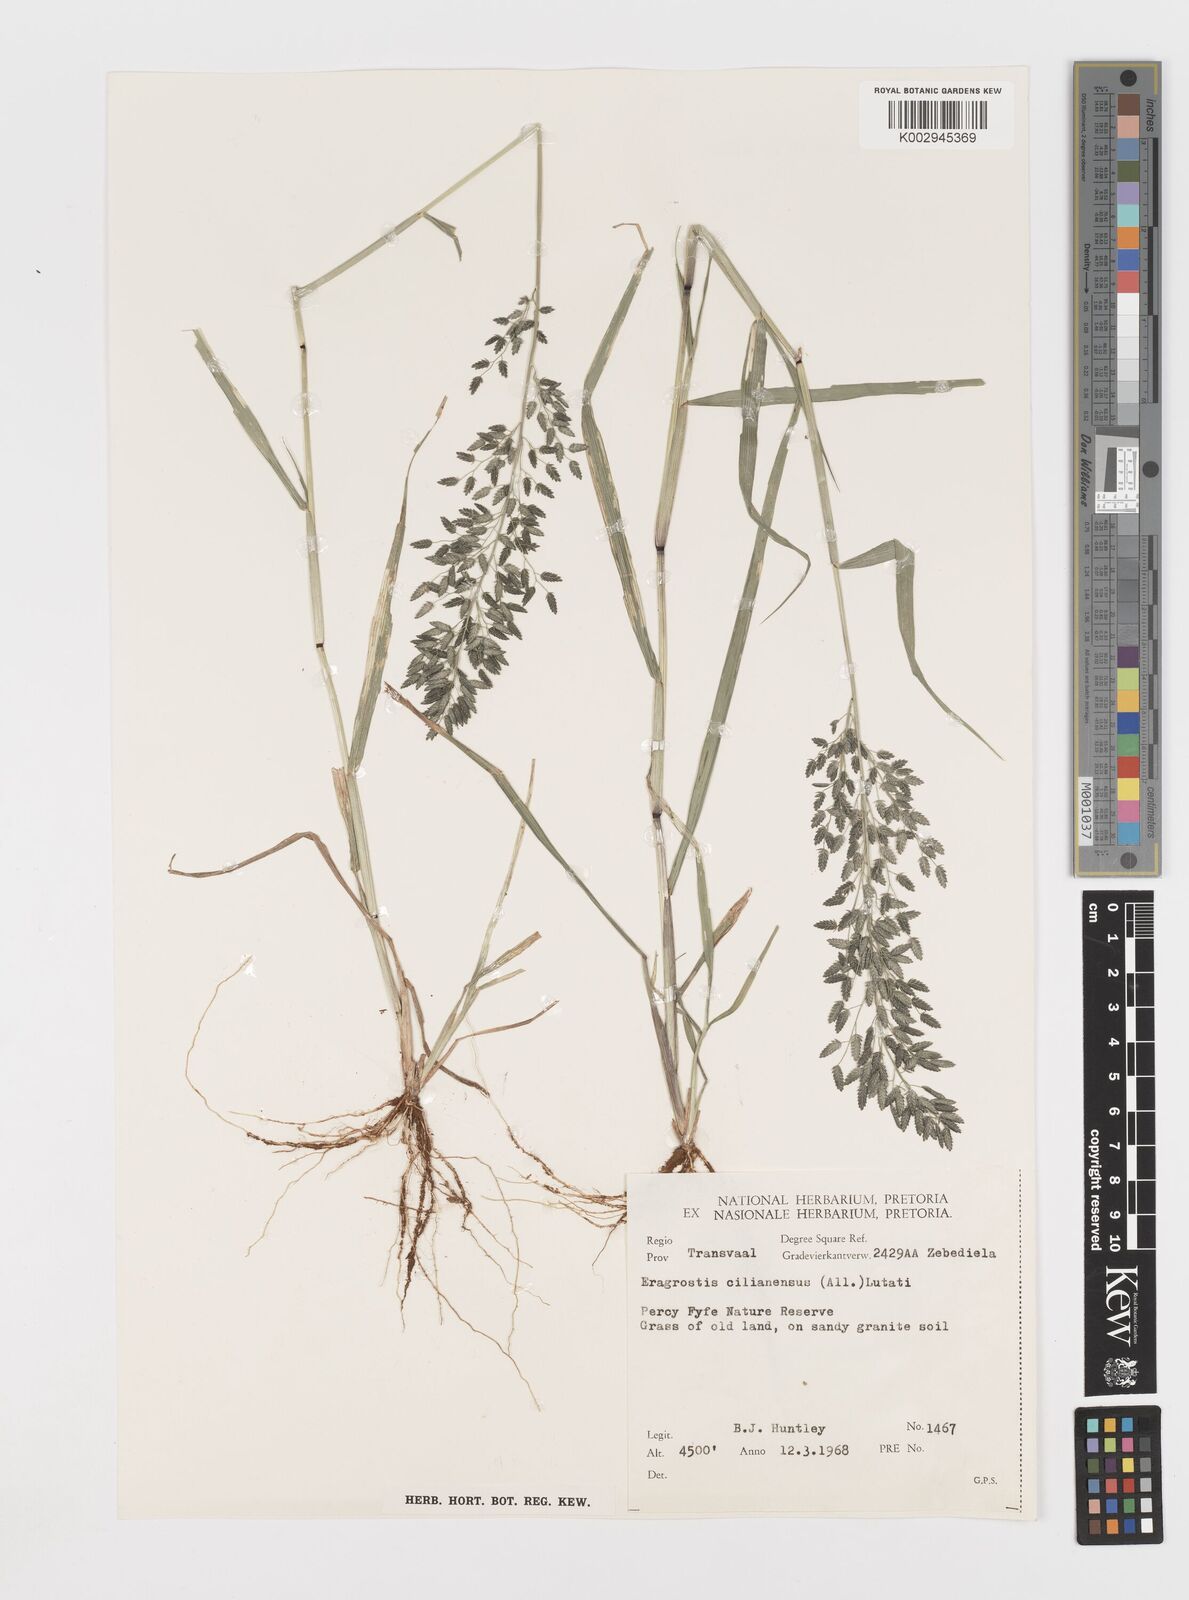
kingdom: Plantae
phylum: Tracheophyta
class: Liliopsida
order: Poales
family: Poaceae
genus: Eragrostis
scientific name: Eragrostis cilianensis
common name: Stinkgrass
